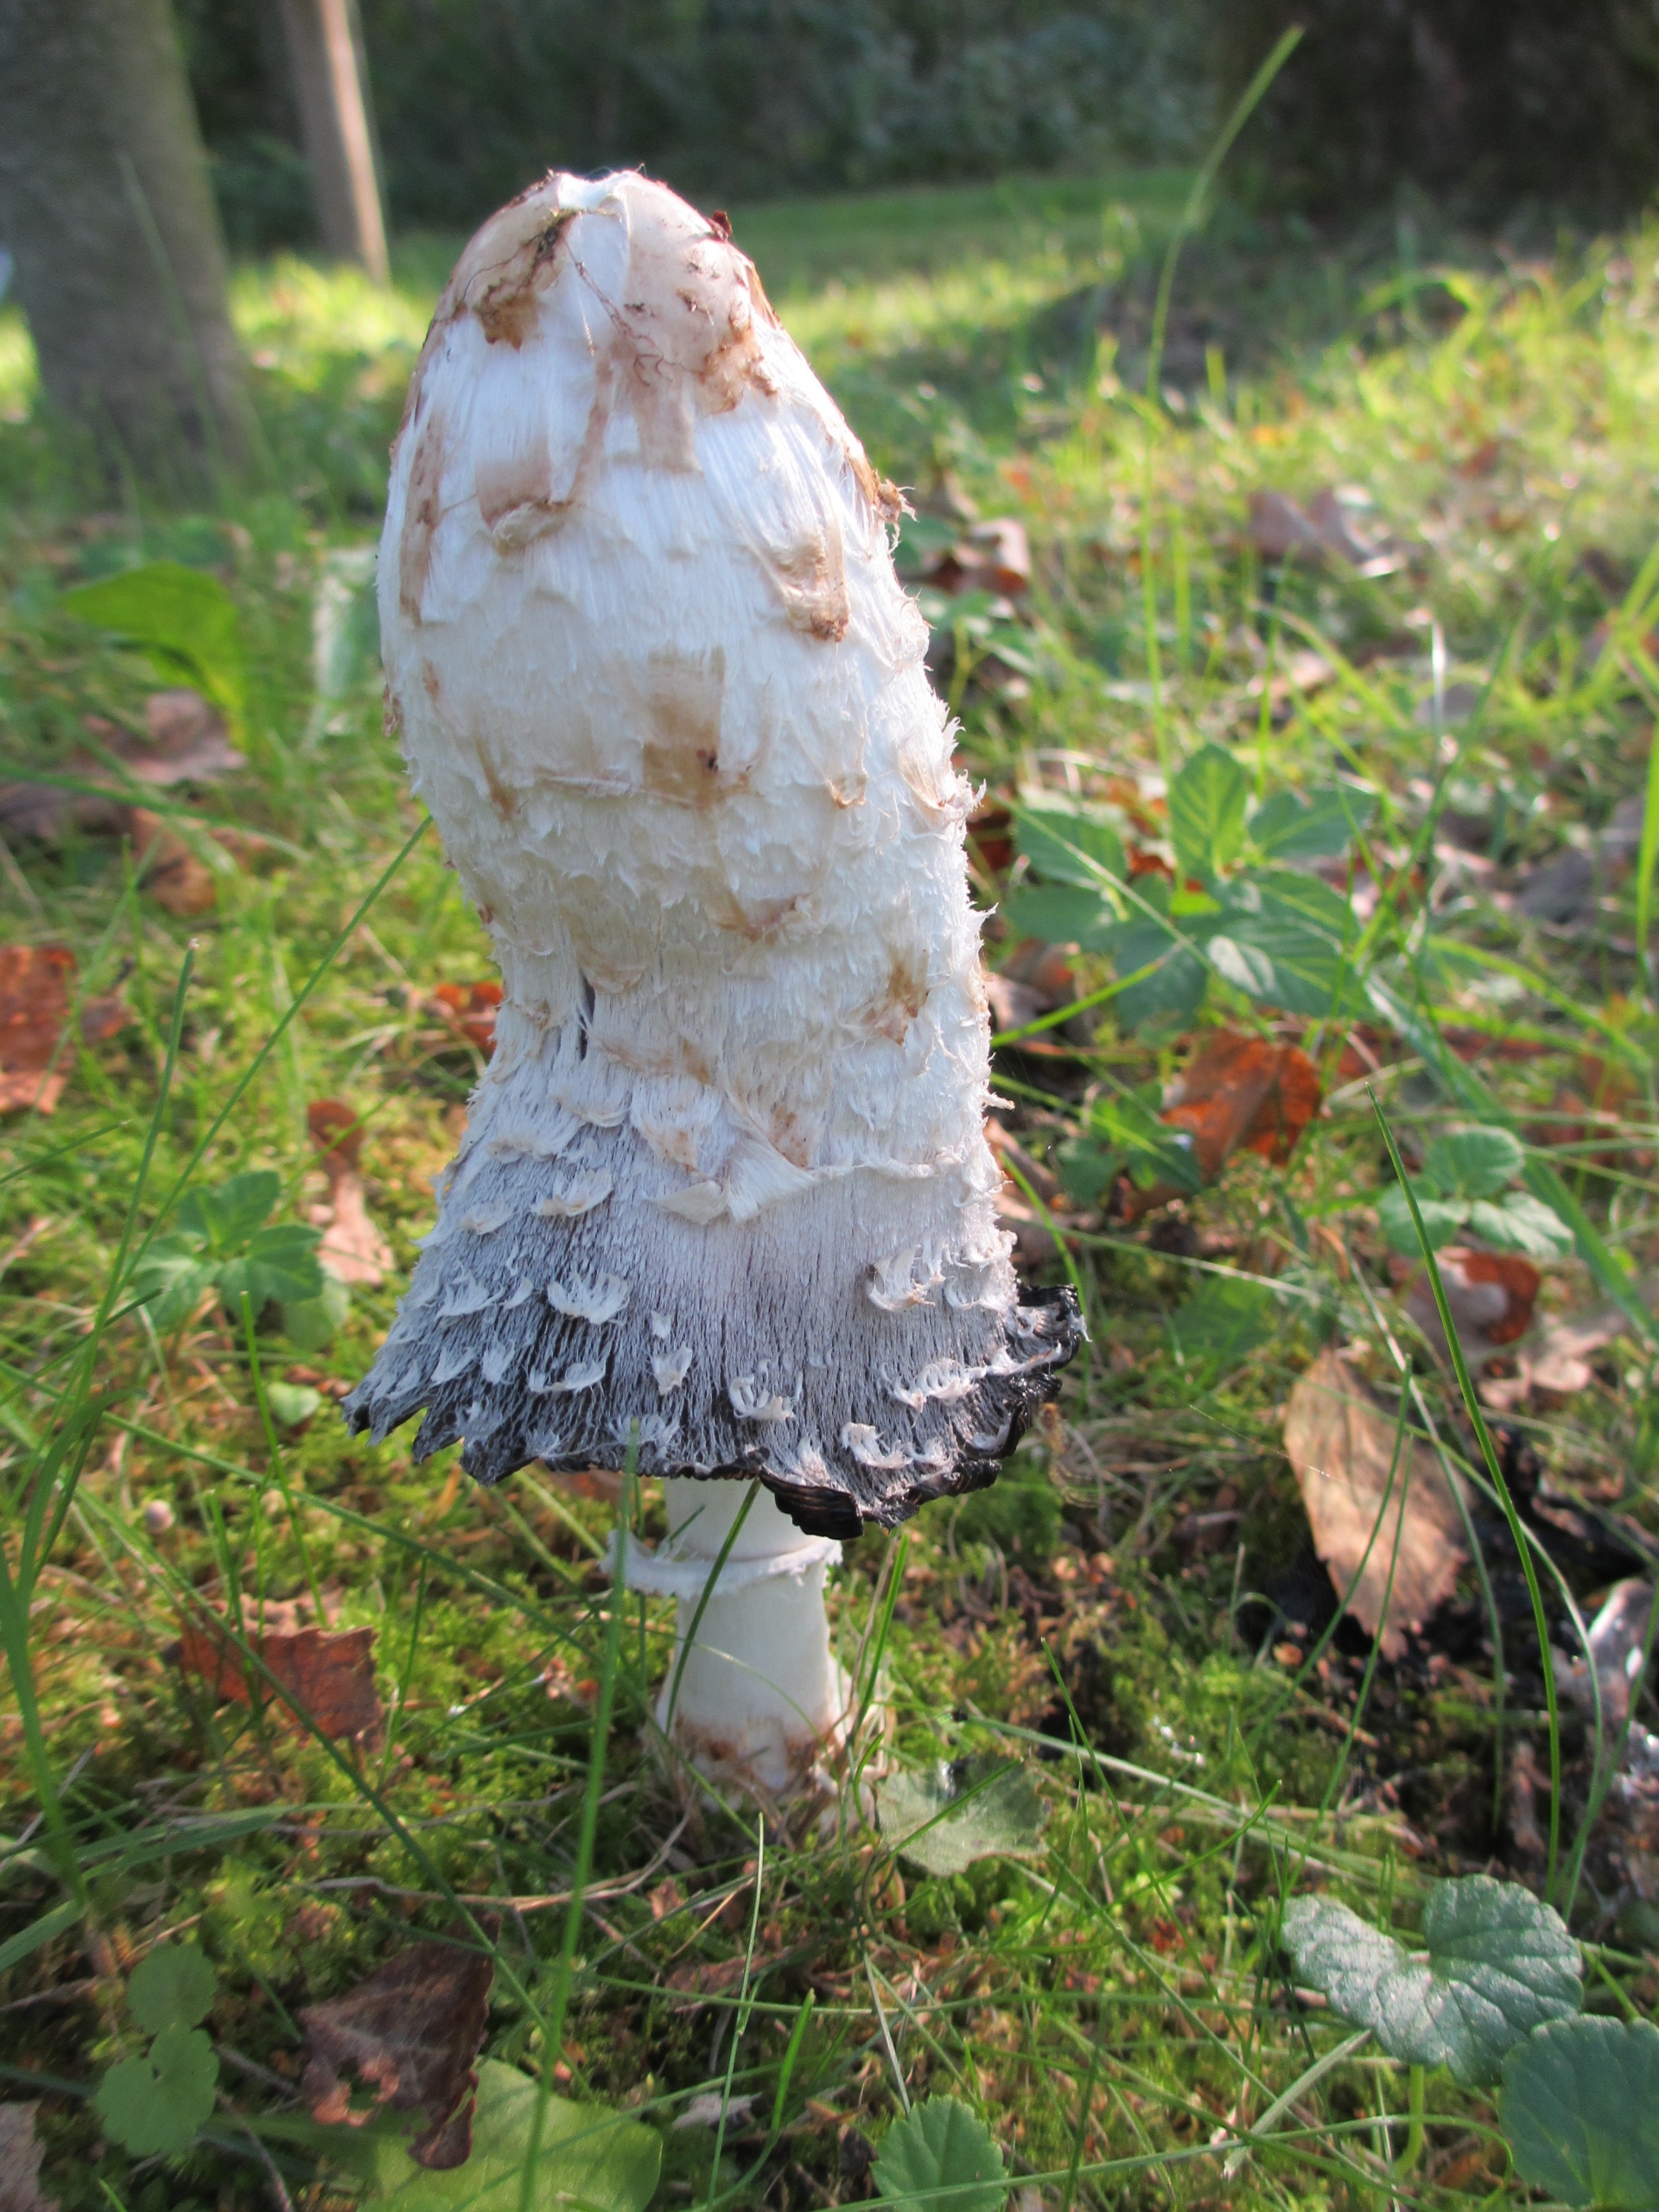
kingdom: Fungi
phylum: Basidiomycota
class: Agaricomycetes
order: Agaricales
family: Agaricaceae
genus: Coprinus
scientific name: Coprinus comatus
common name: Stor parykhat
